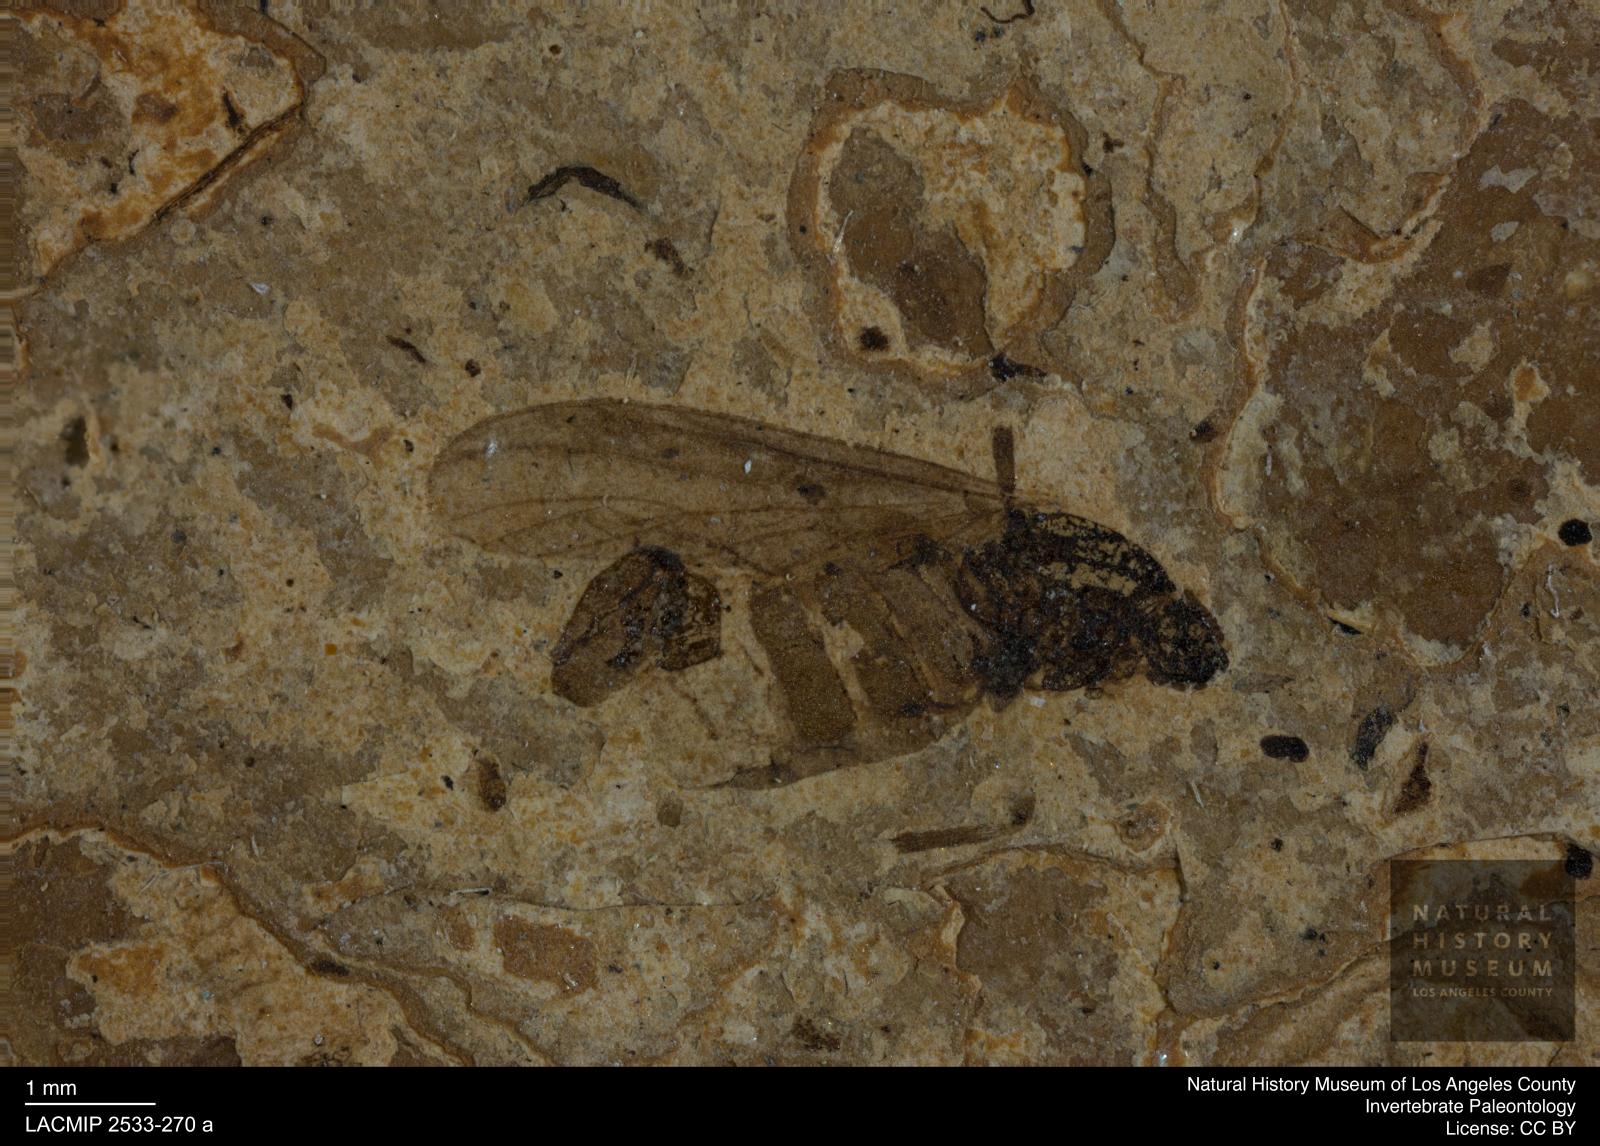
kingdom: Animalia
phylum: Arthropoda
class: Insecta
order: Diptera
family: Bibionidae
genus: Plecia
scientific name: Plecia exigua
